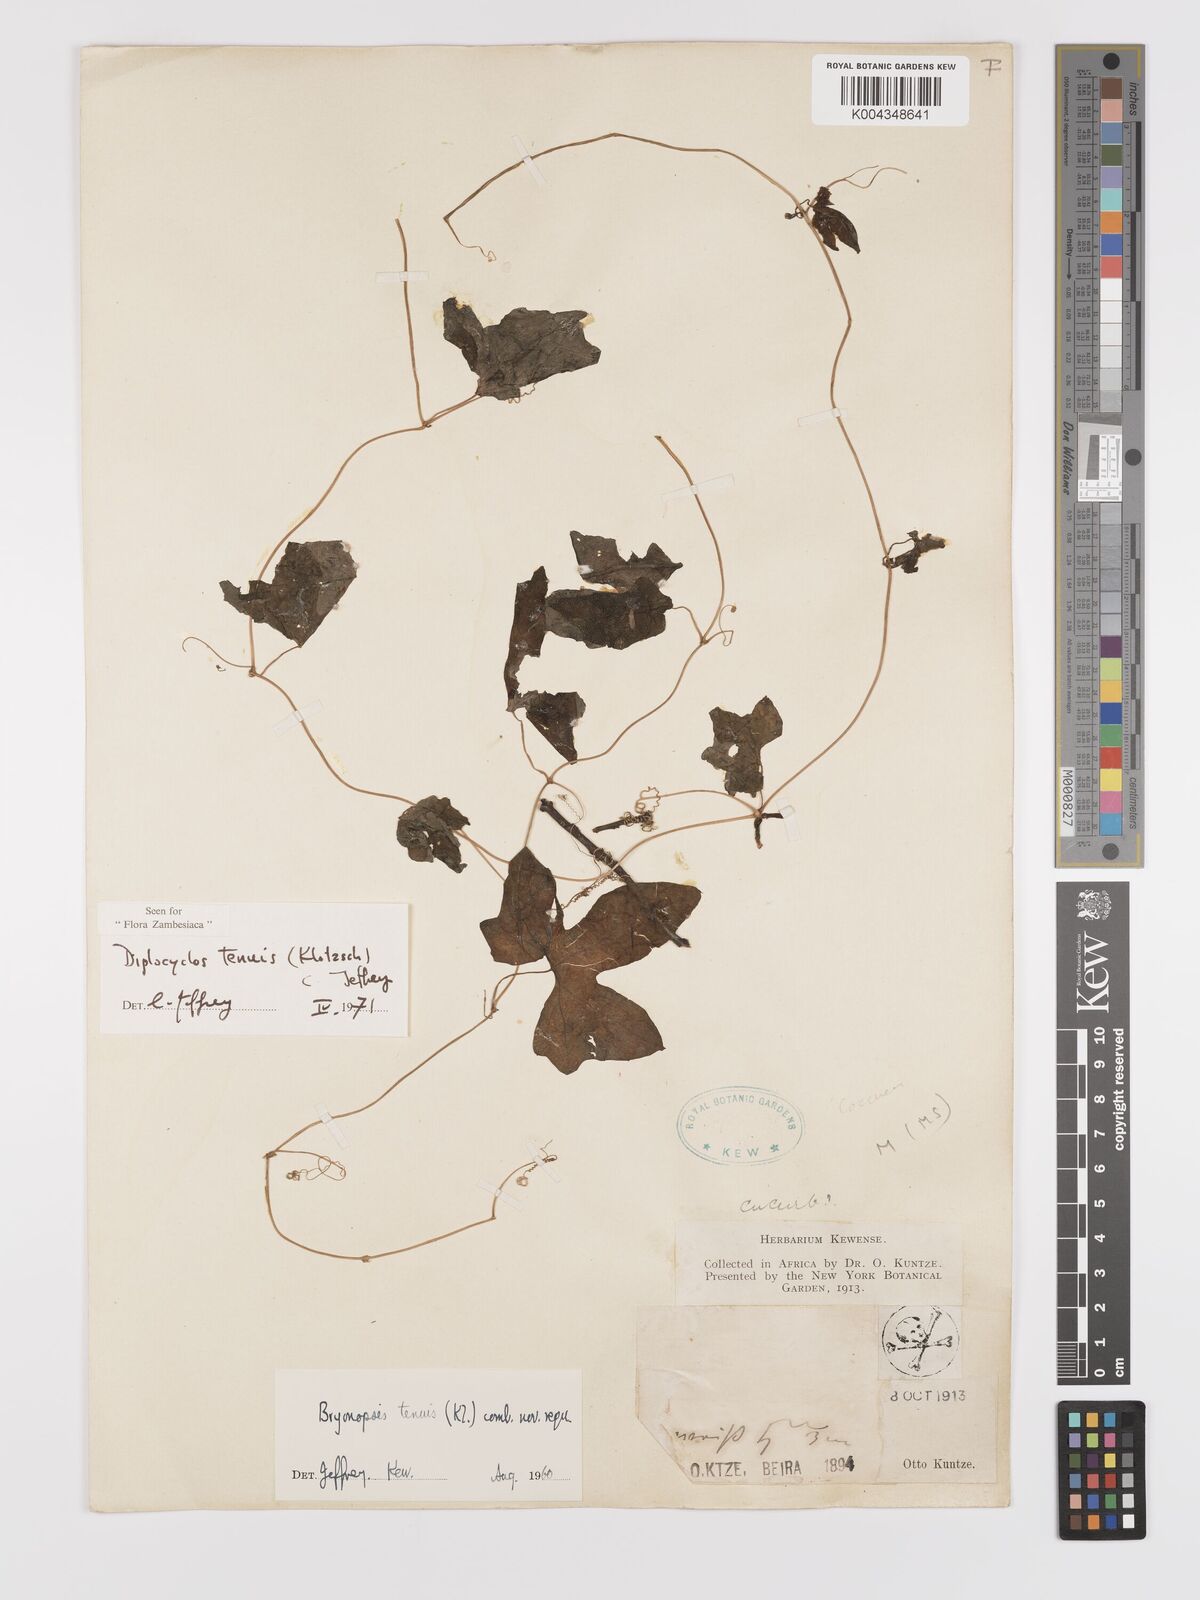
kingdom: Plantae
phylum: Tracheophyta
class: Magnoliopsida
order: Cucurbitales
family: Cucurbitaceae
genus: Diplocyclos
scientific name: Diplocyclos tenuis
